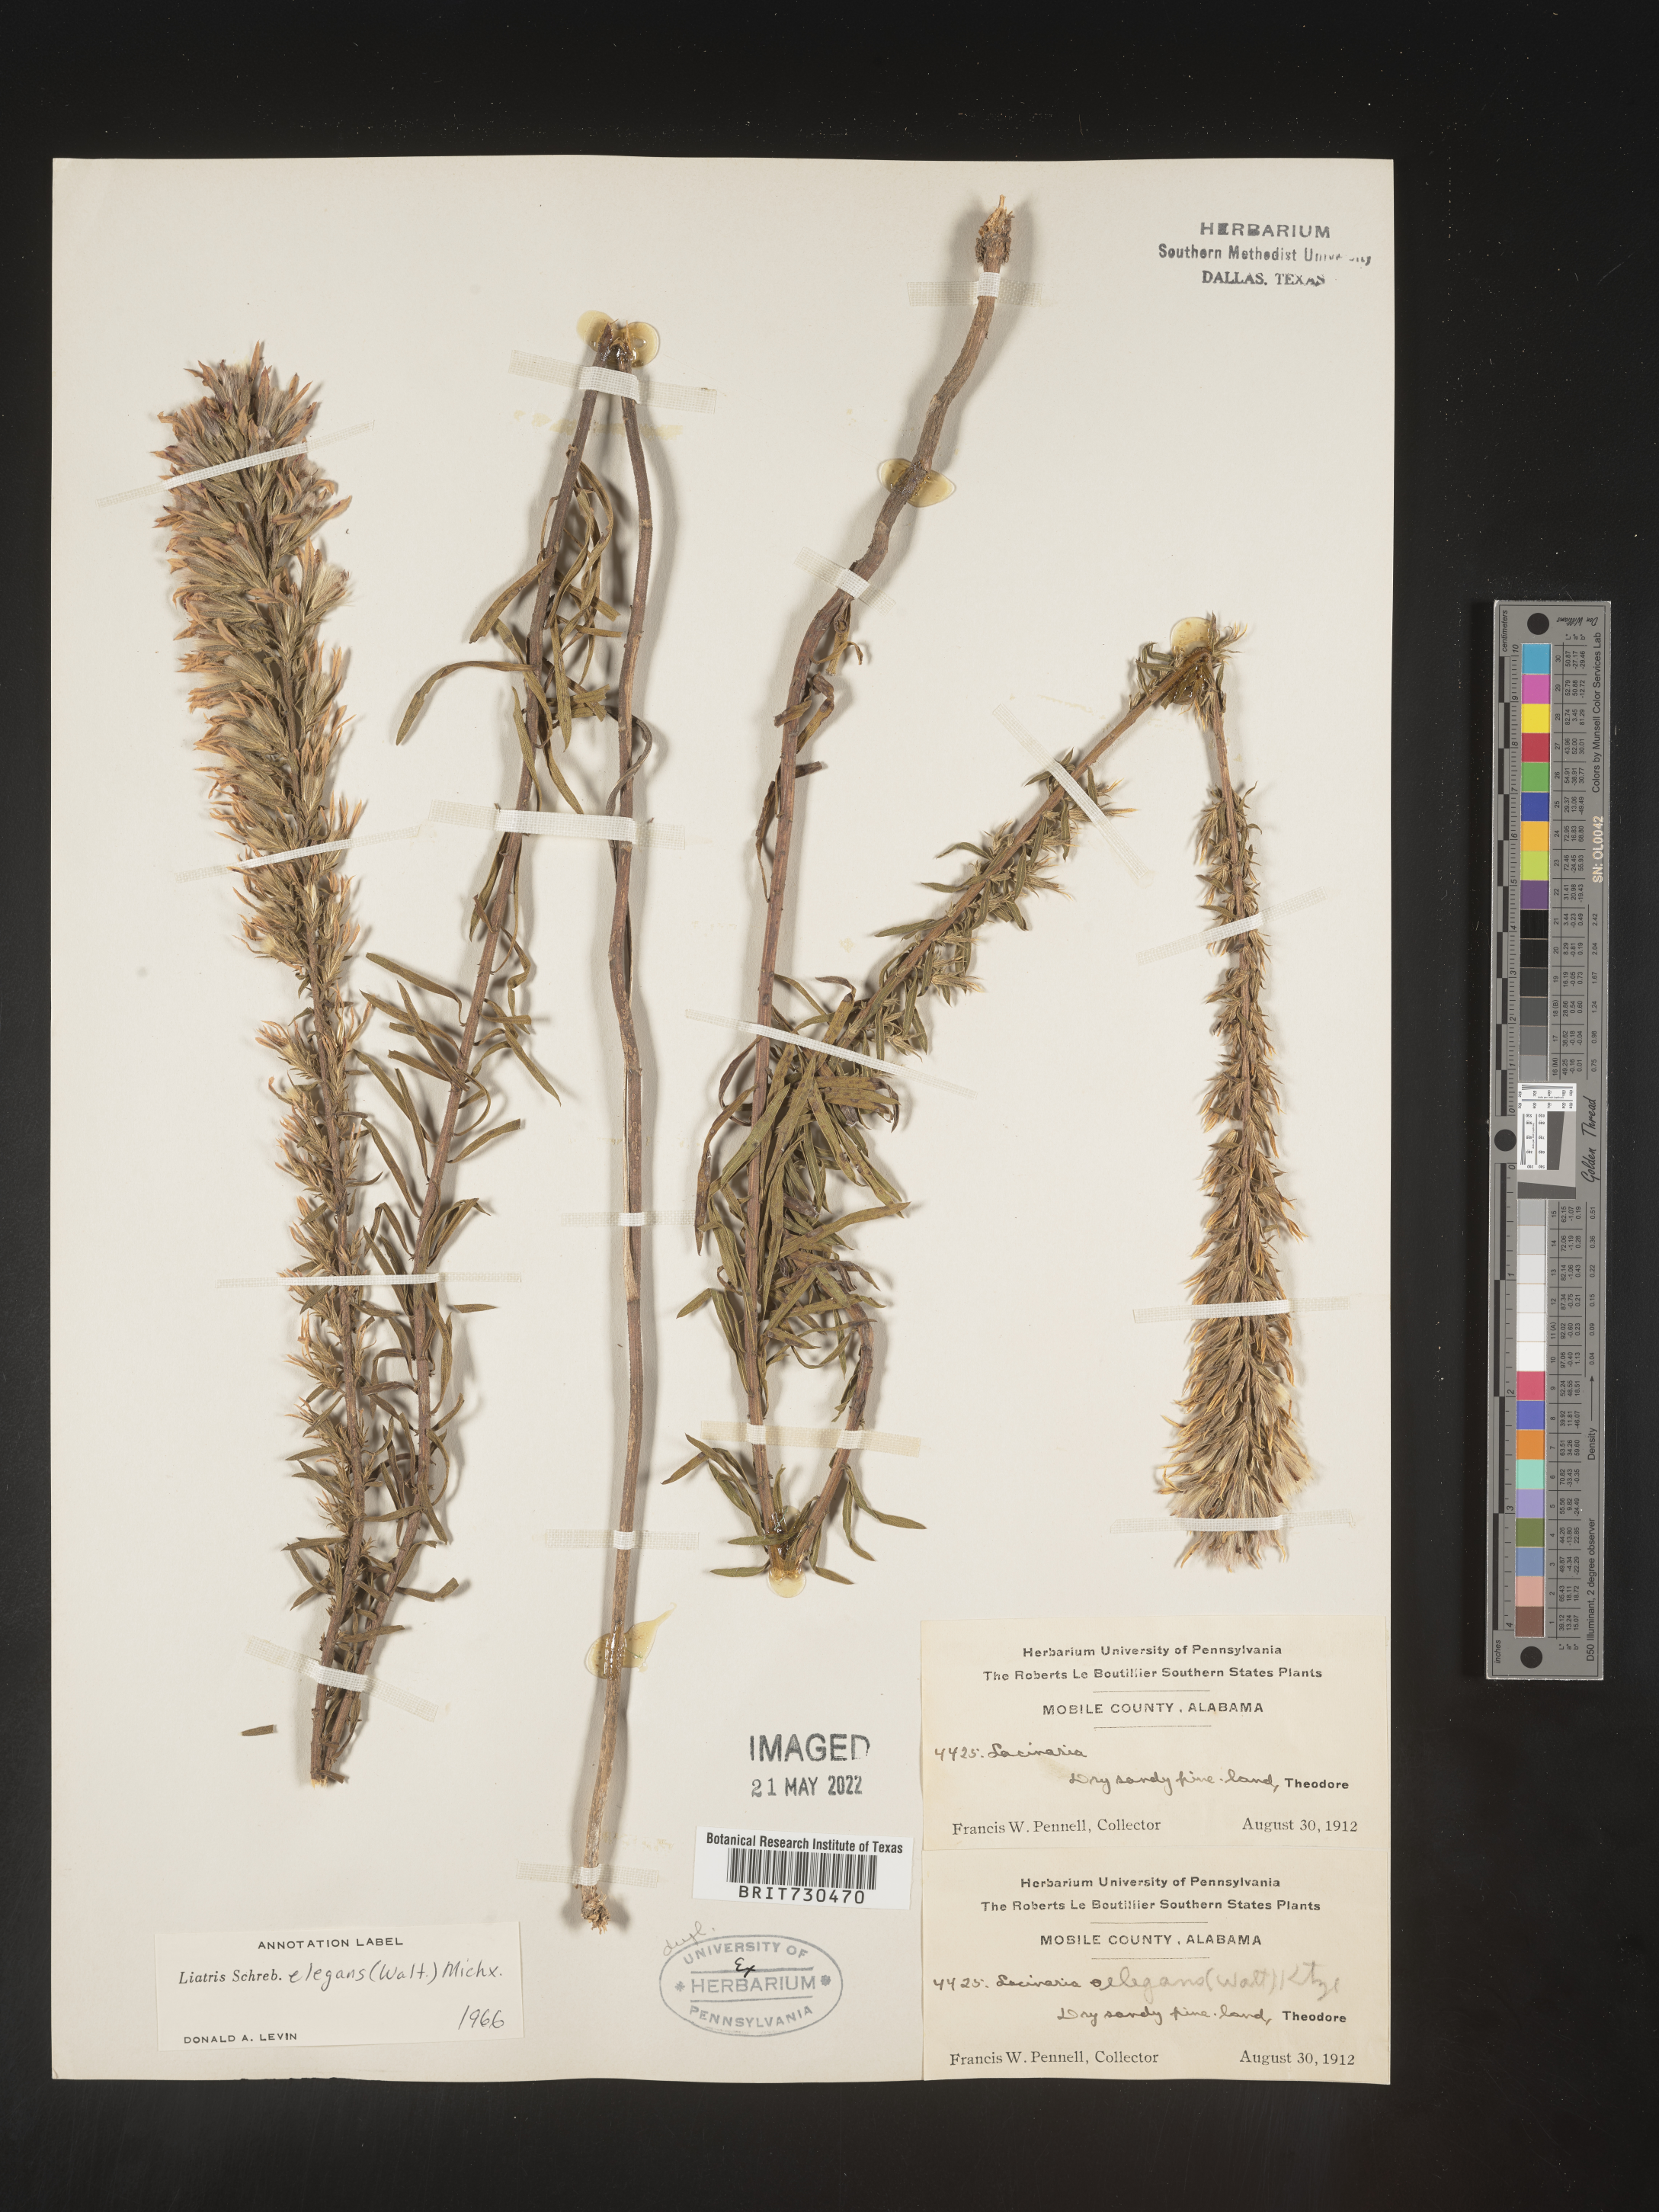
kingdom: Plantae
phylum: Tracheophyta
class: Magnoliopsida
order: Asterales
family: Asteraceae
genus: Liatris
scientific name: Liatris elegans
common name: Pinkscale gayfeather
